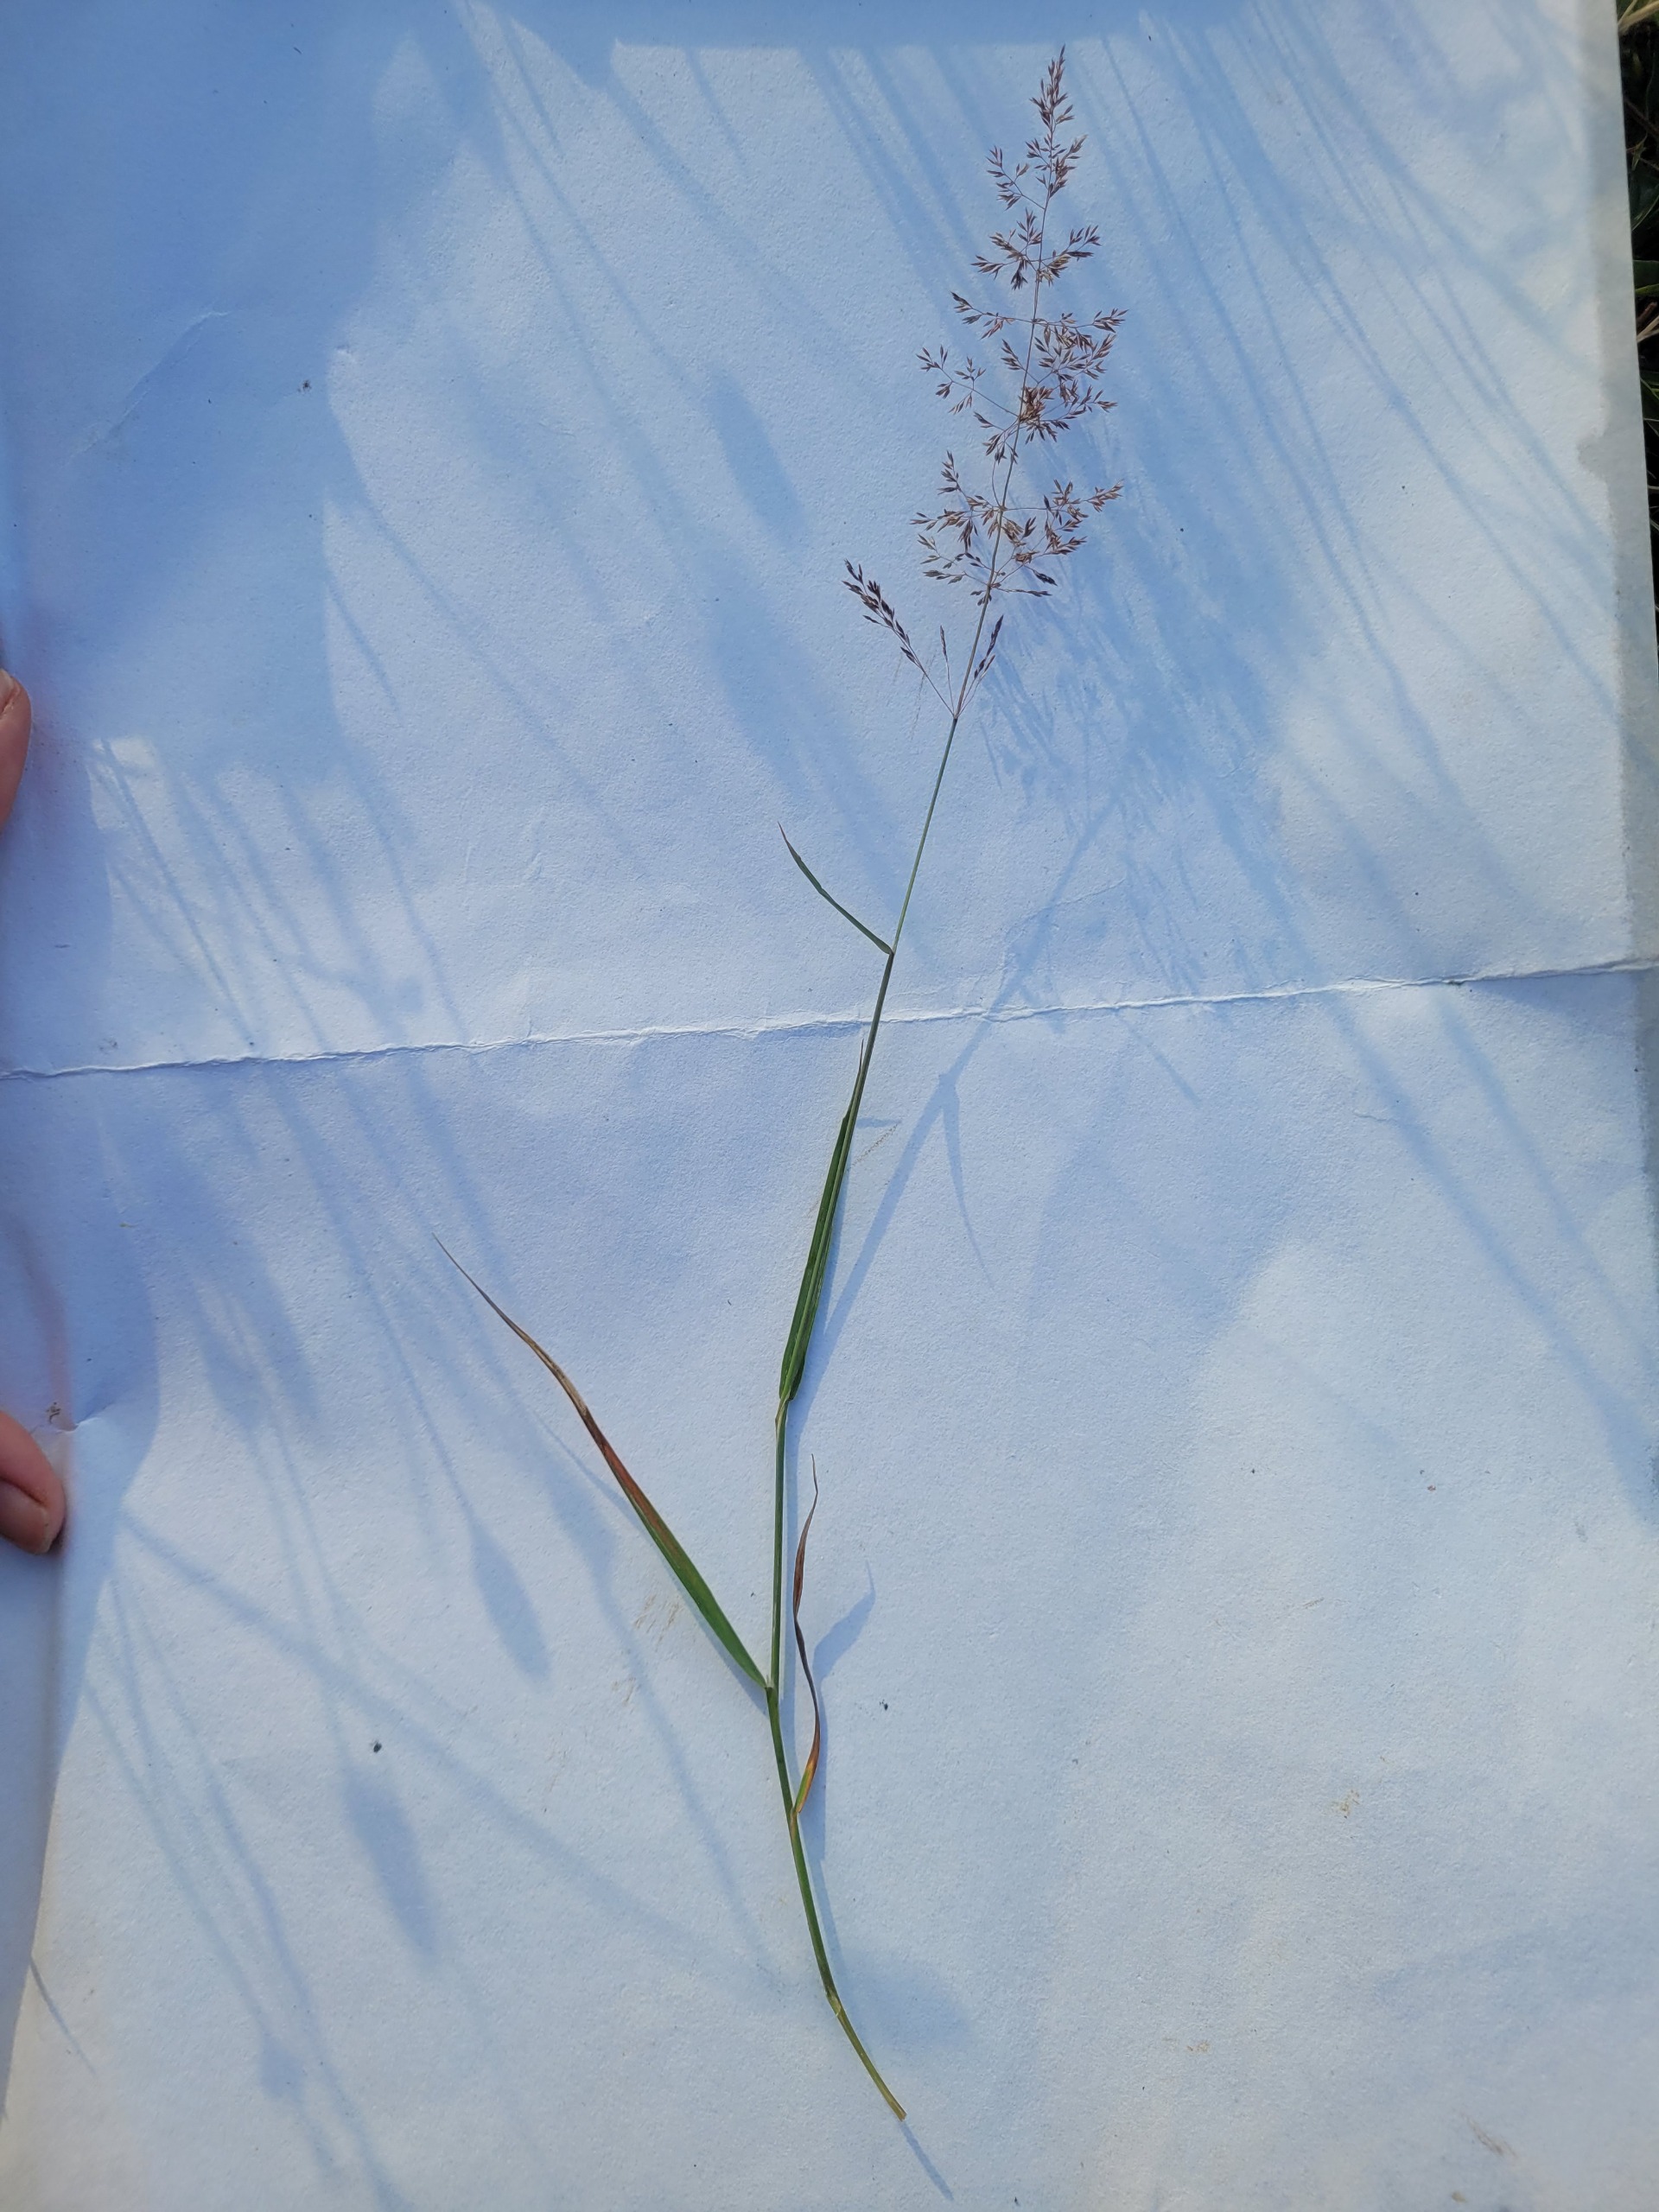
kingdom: Plantae
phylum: Tracheophyta
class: Liliopsida
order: Poales
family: Poaceae
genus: Agrostis
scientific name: Agrostis capillaris
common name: Almindelig hvene
